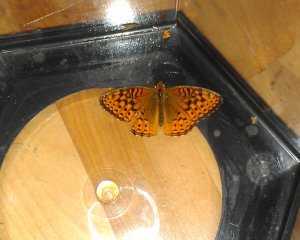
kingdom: Animalia
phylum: Arthropoda
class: Insecta
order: Lepidoptera
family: Nymphalidae
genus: Speyeria
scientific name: Speyeria cybele
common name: Great Spangled Fritillary
